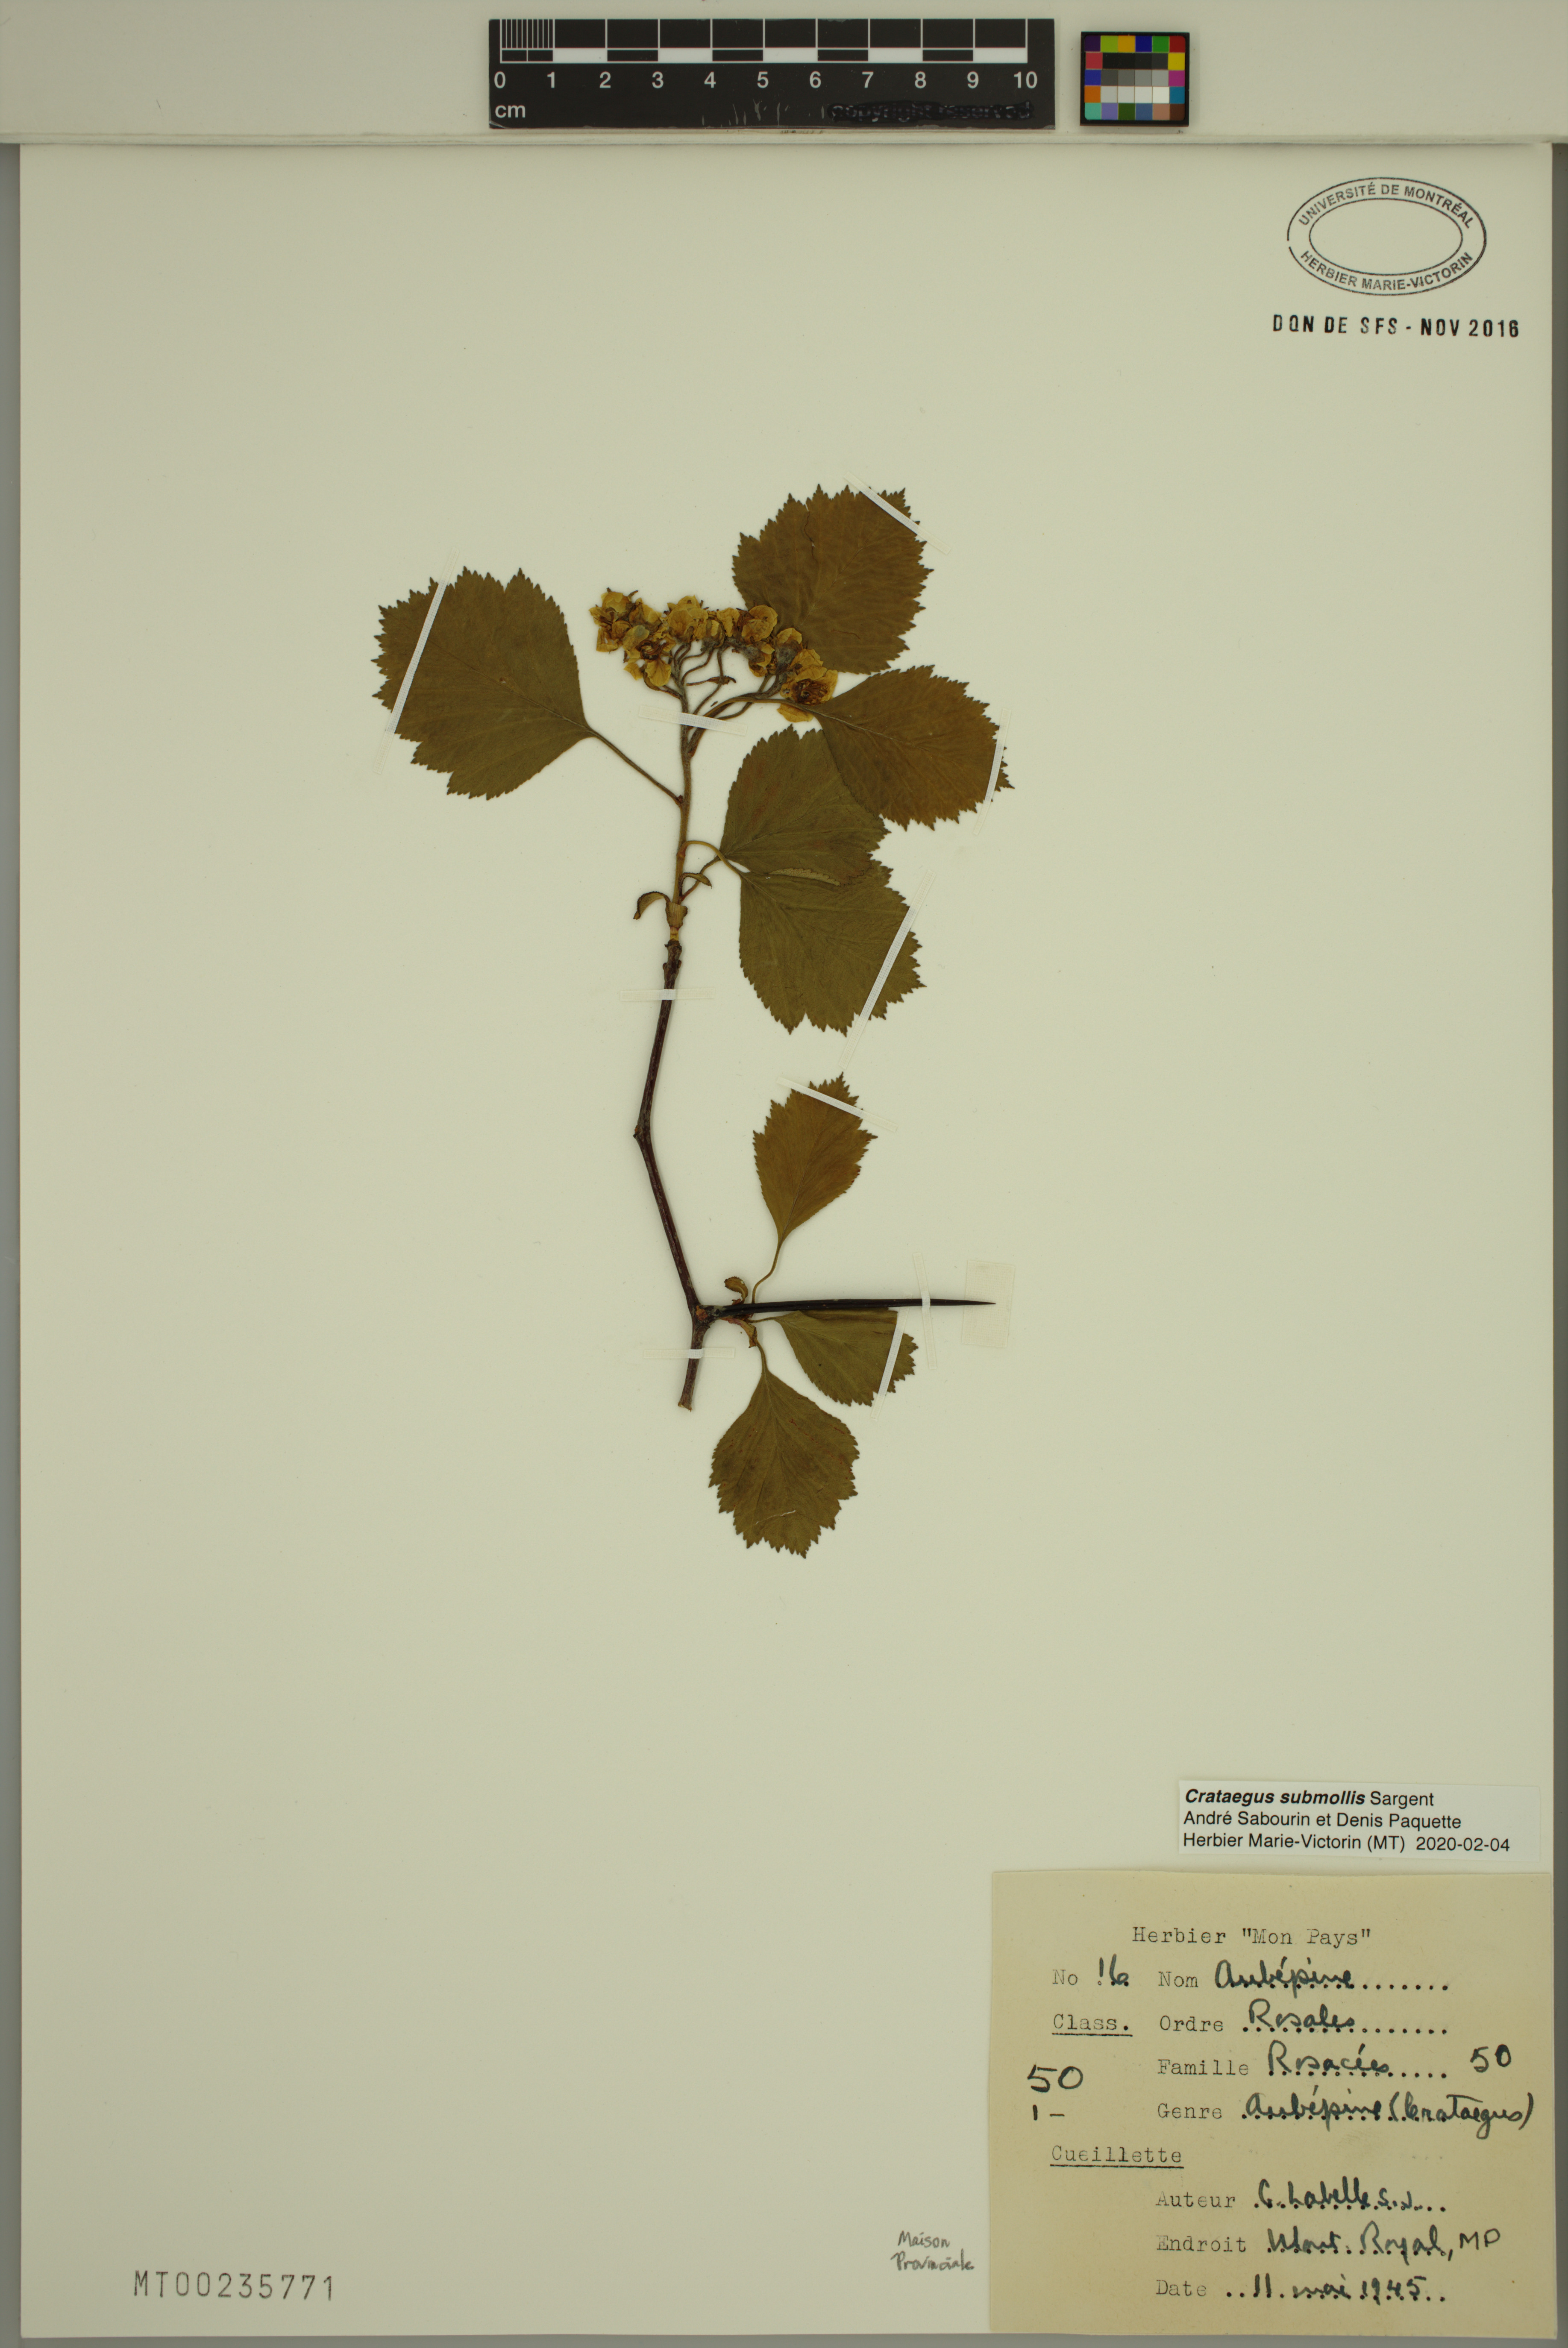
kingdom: Plantae
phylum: Tracheophyta
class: Magnoliopsida
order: Rosales
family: Rosaceae
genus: Crataegus
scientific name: Crataegus submollis
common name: Hairy cockspurthorn
